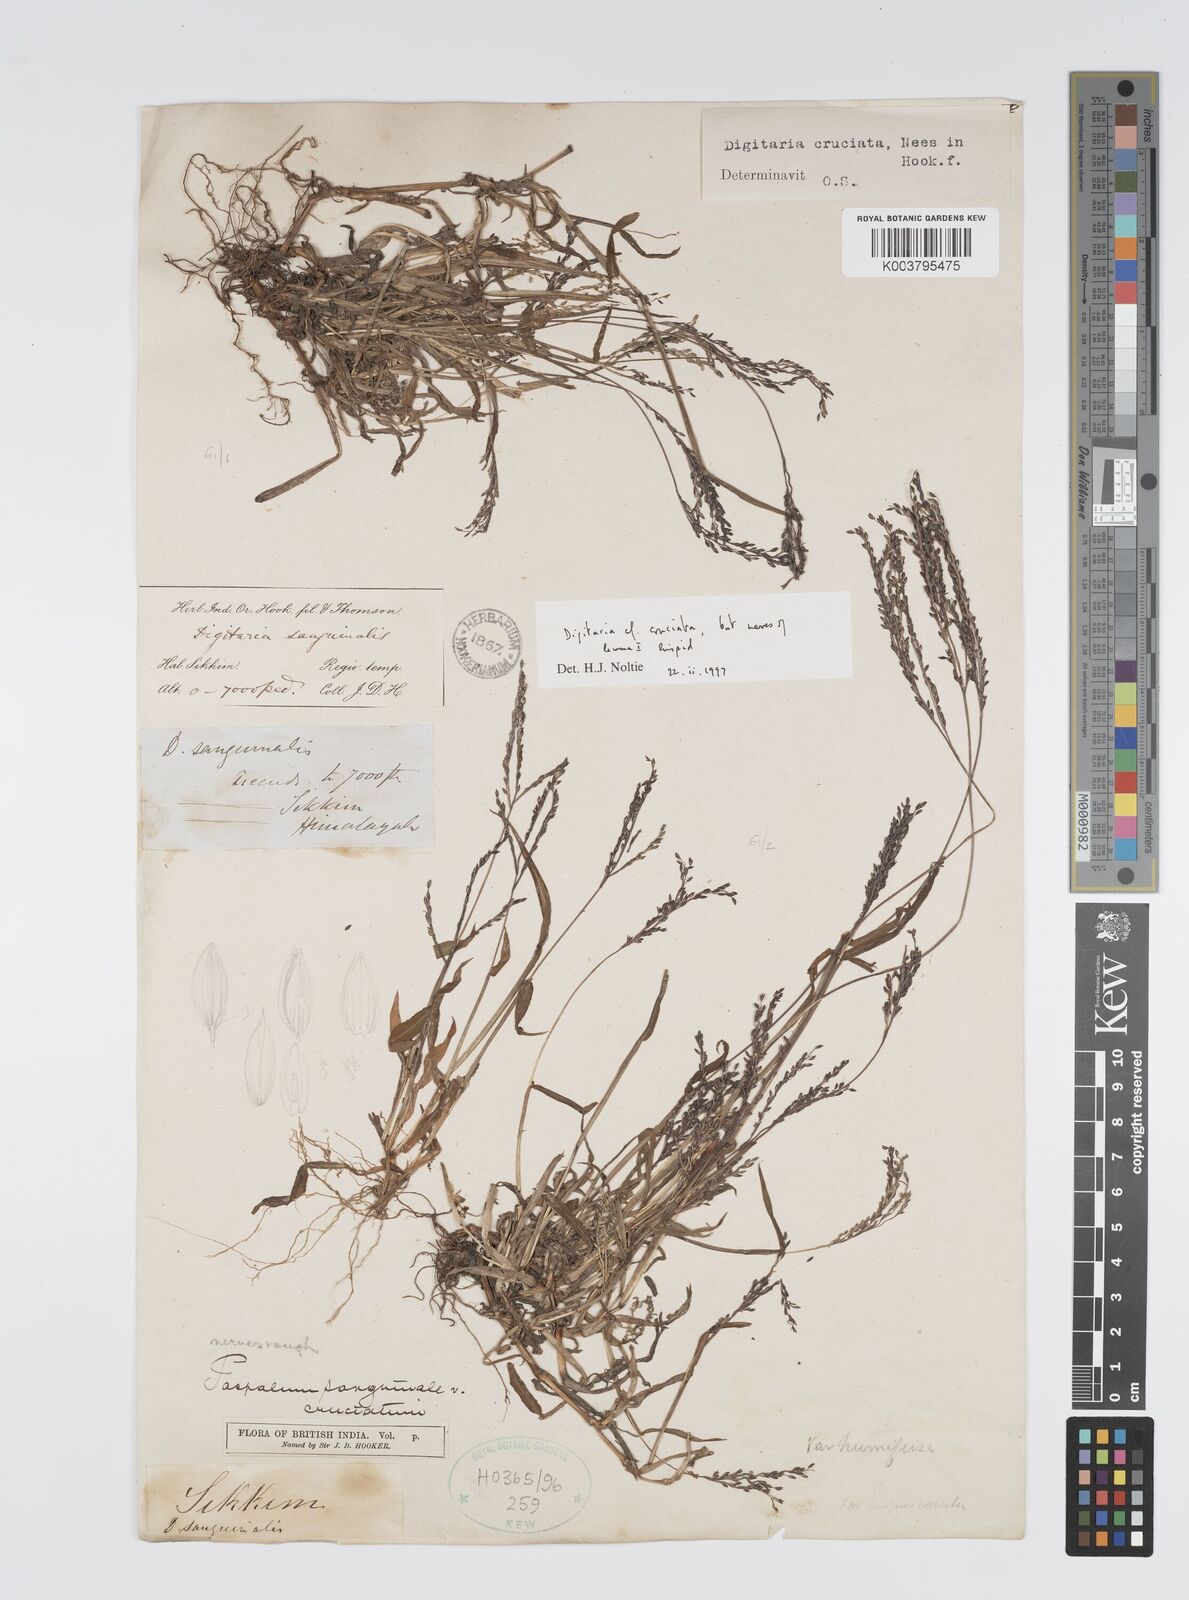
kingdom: Plantae
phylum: Tracheophyta
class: Liliopsida
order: Poales
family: Poaceae
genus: Digitaria
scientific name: Digitaria cruciata
